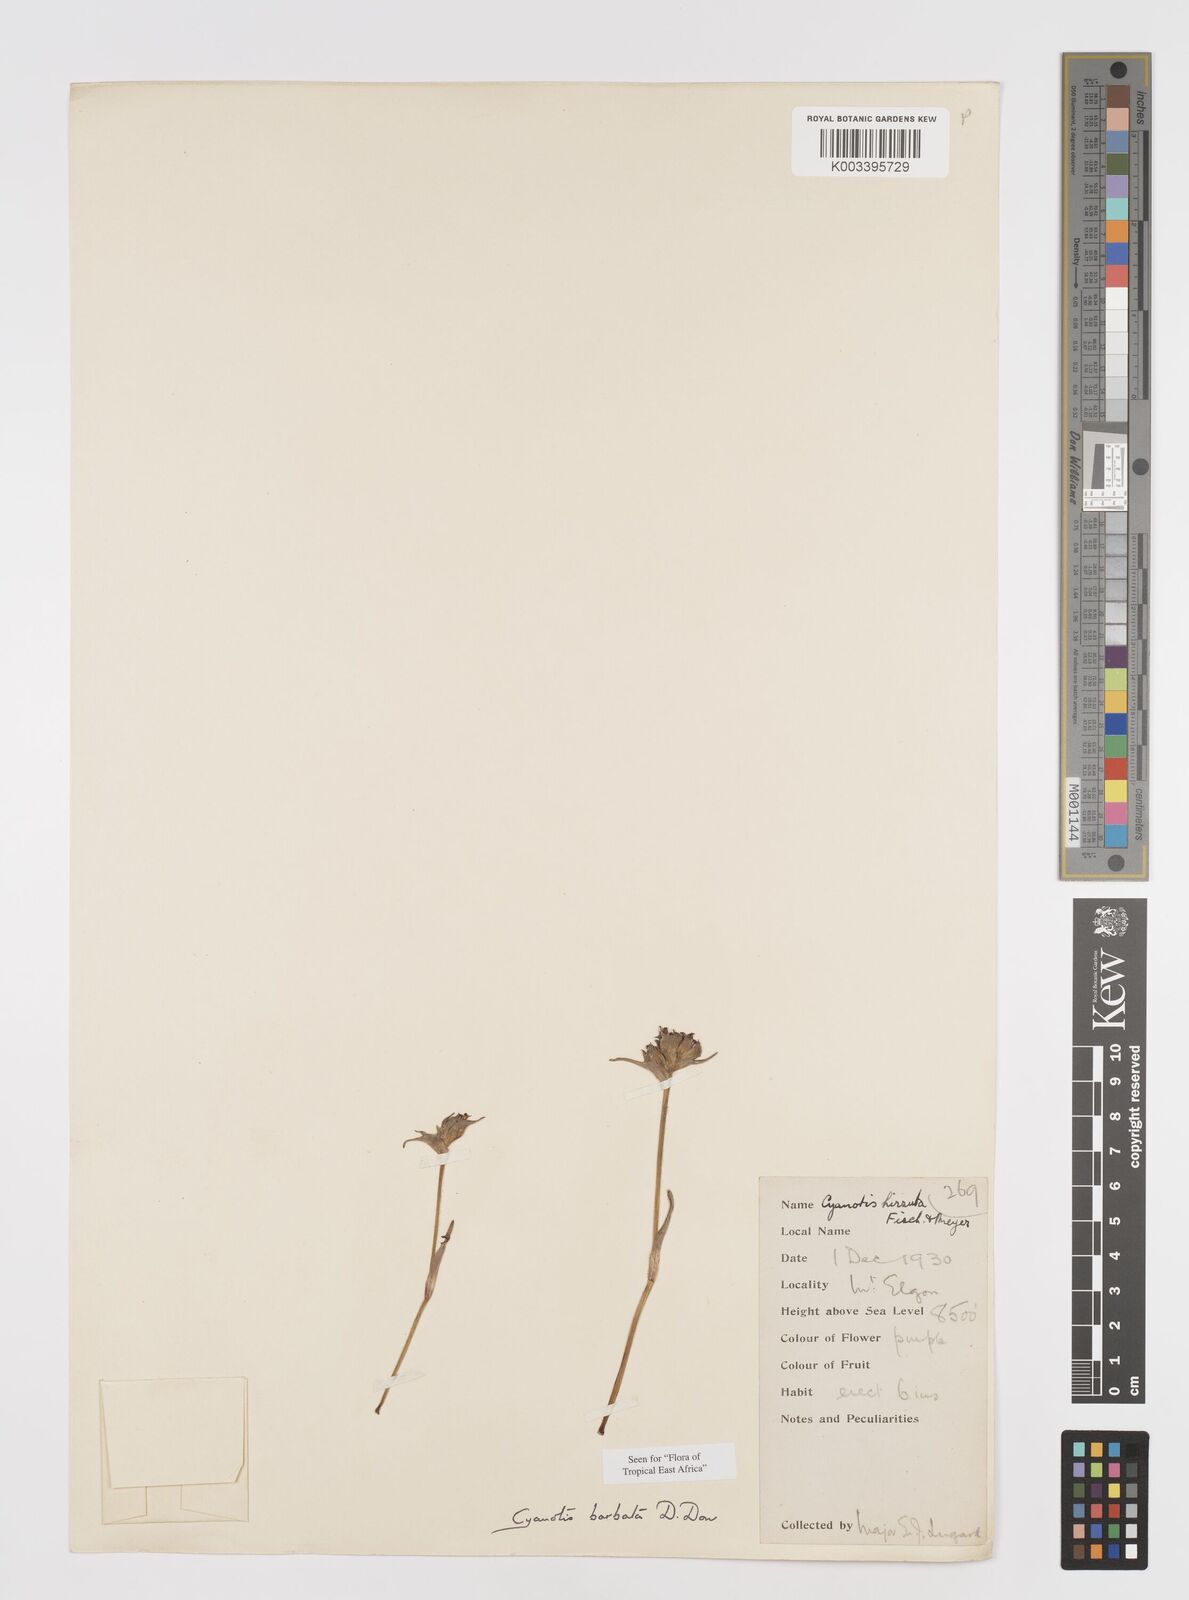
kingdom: Plantae
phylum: Tracheophyta
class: Liliopsida
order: Commelinales
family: Commelinaceae
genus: Cyanotis
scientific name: Cyanotis vaga
